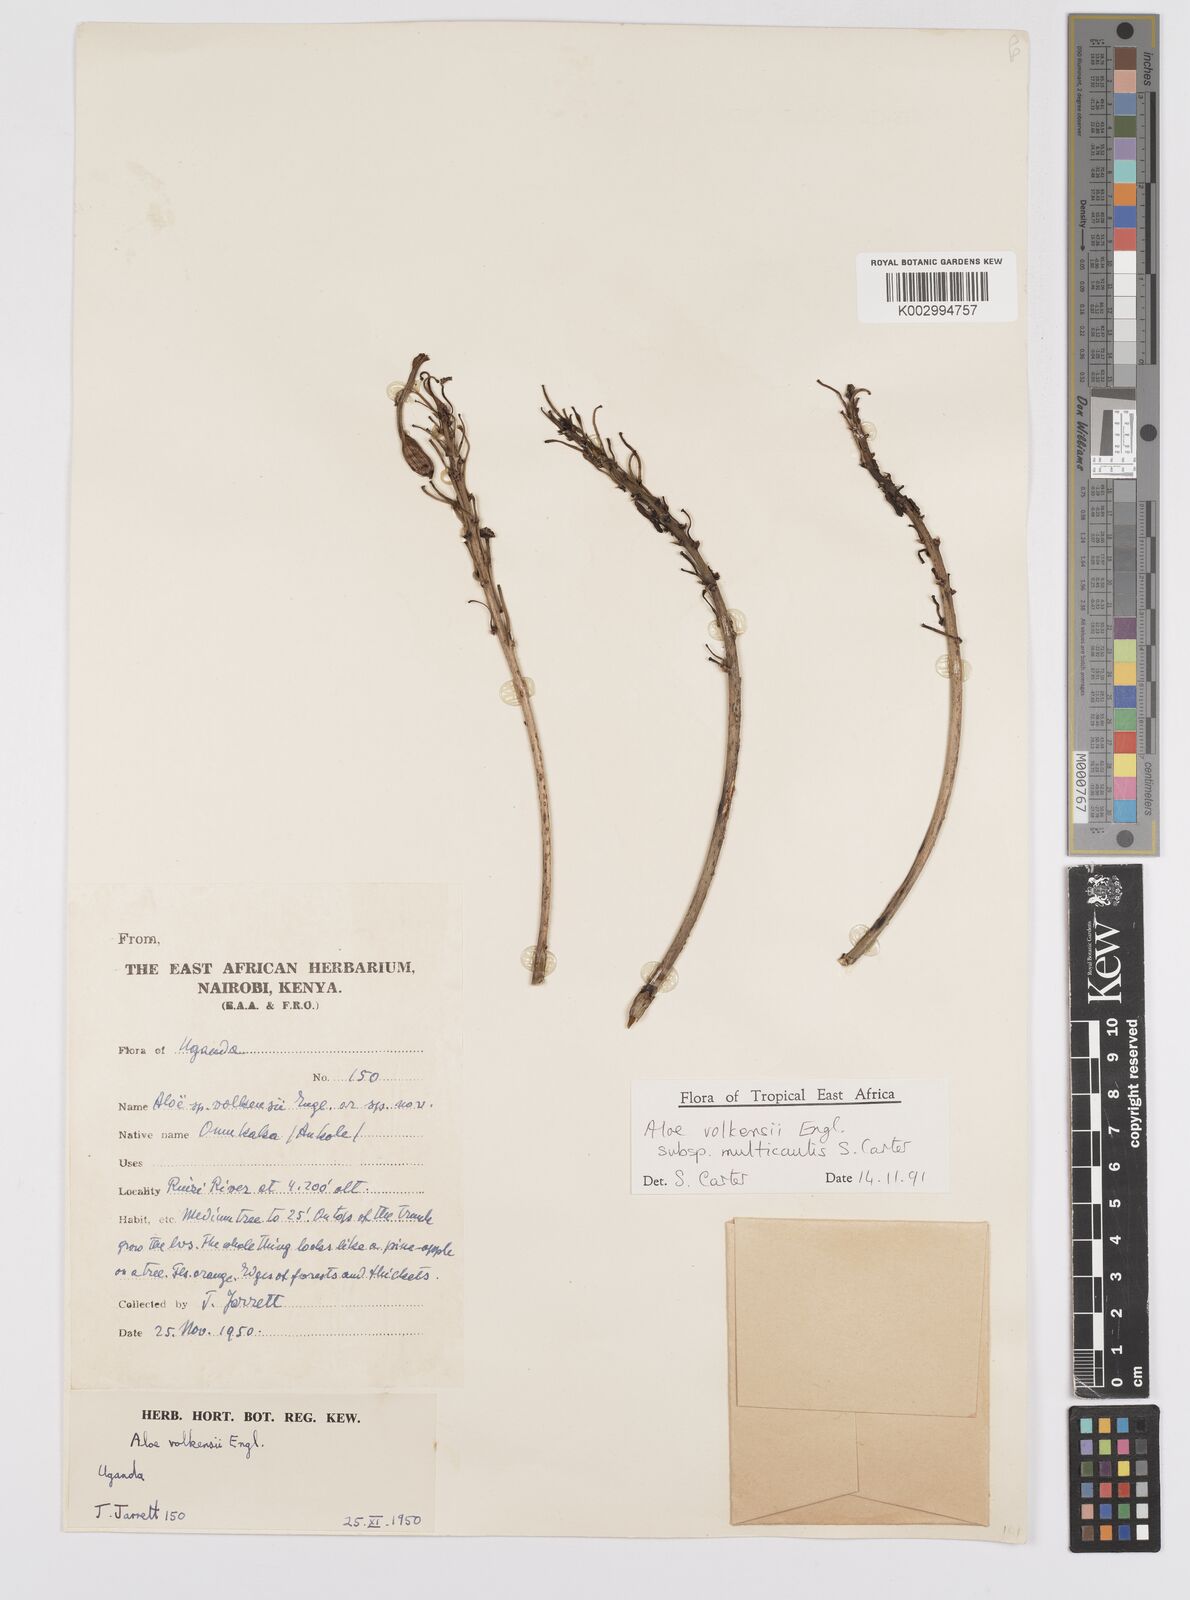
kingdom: Plantae
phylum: Tracheophyta
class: Liliopsida
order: Asparagales
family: Asphodelaceae
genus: Aloe
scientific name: Aloe volkensii
